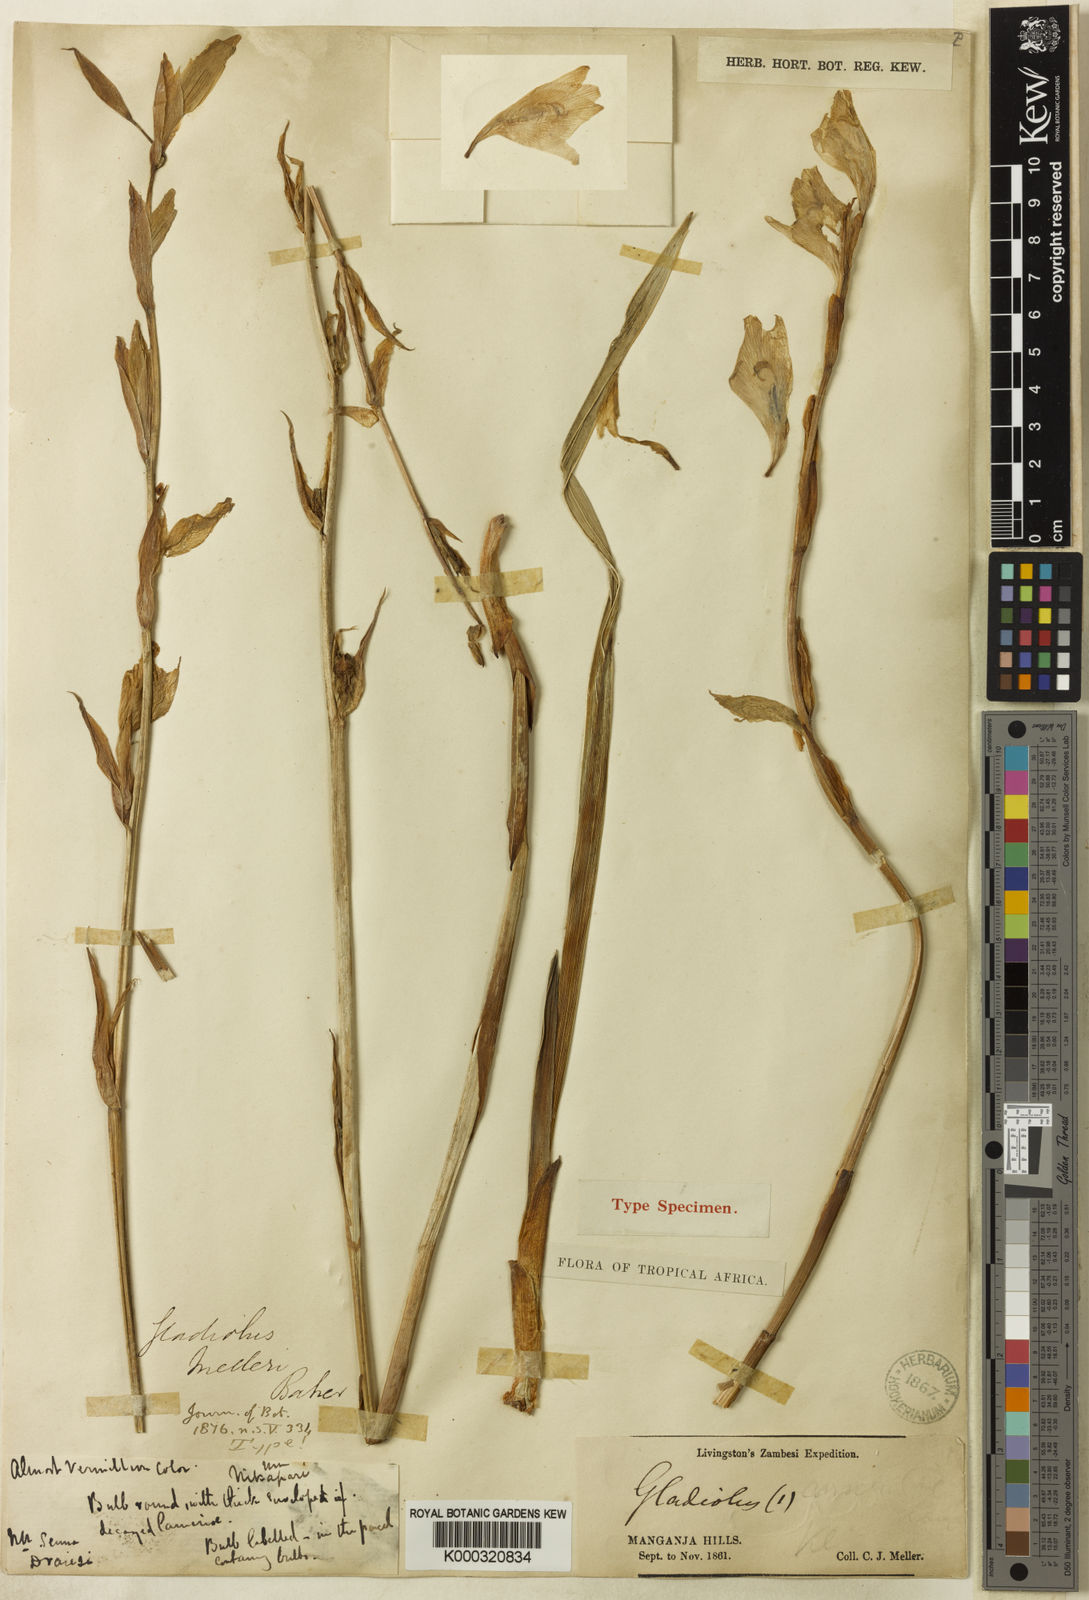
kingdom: Plantae
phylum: Tracheophyta
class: Liliopsida
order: Asparagales
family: Iridaceae
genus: Gladiolus
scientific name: Gladiolus melleri
